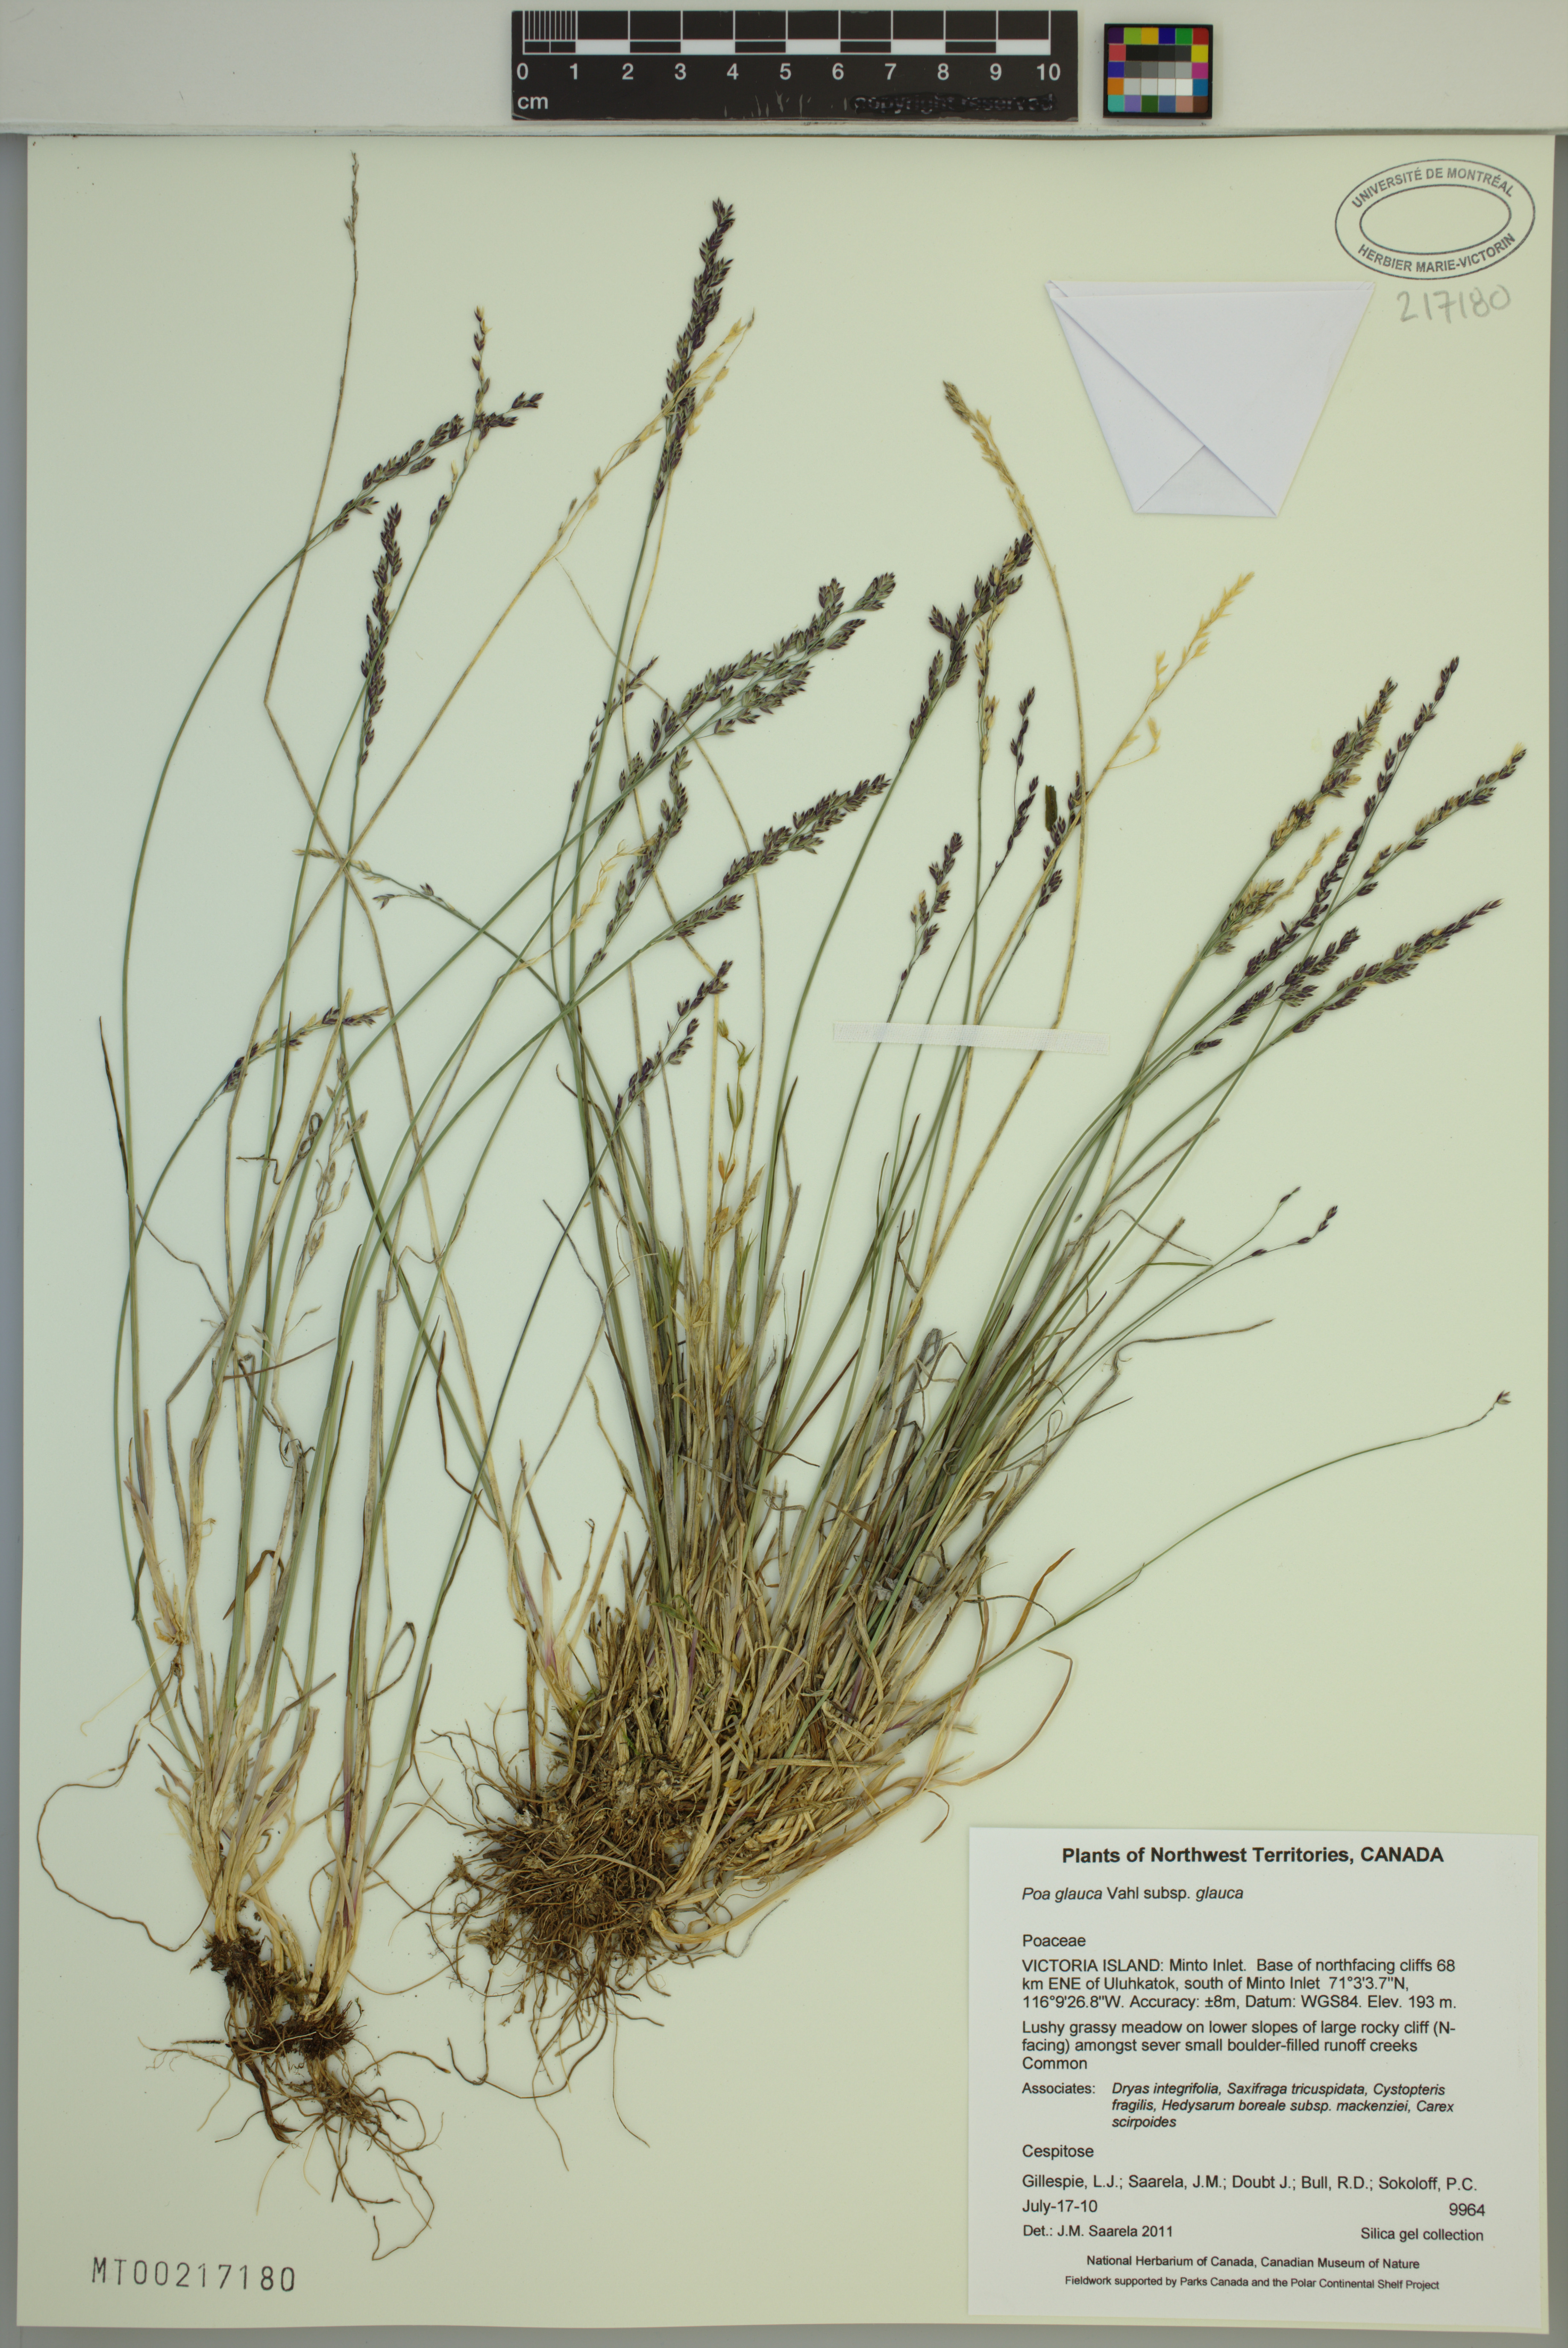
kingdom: Plantae
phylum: Tracheophyta
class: Liliopsida
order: Poales
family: Poaceae
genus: Poa
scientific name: Poa glauca
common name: Glaucous bluegrass
